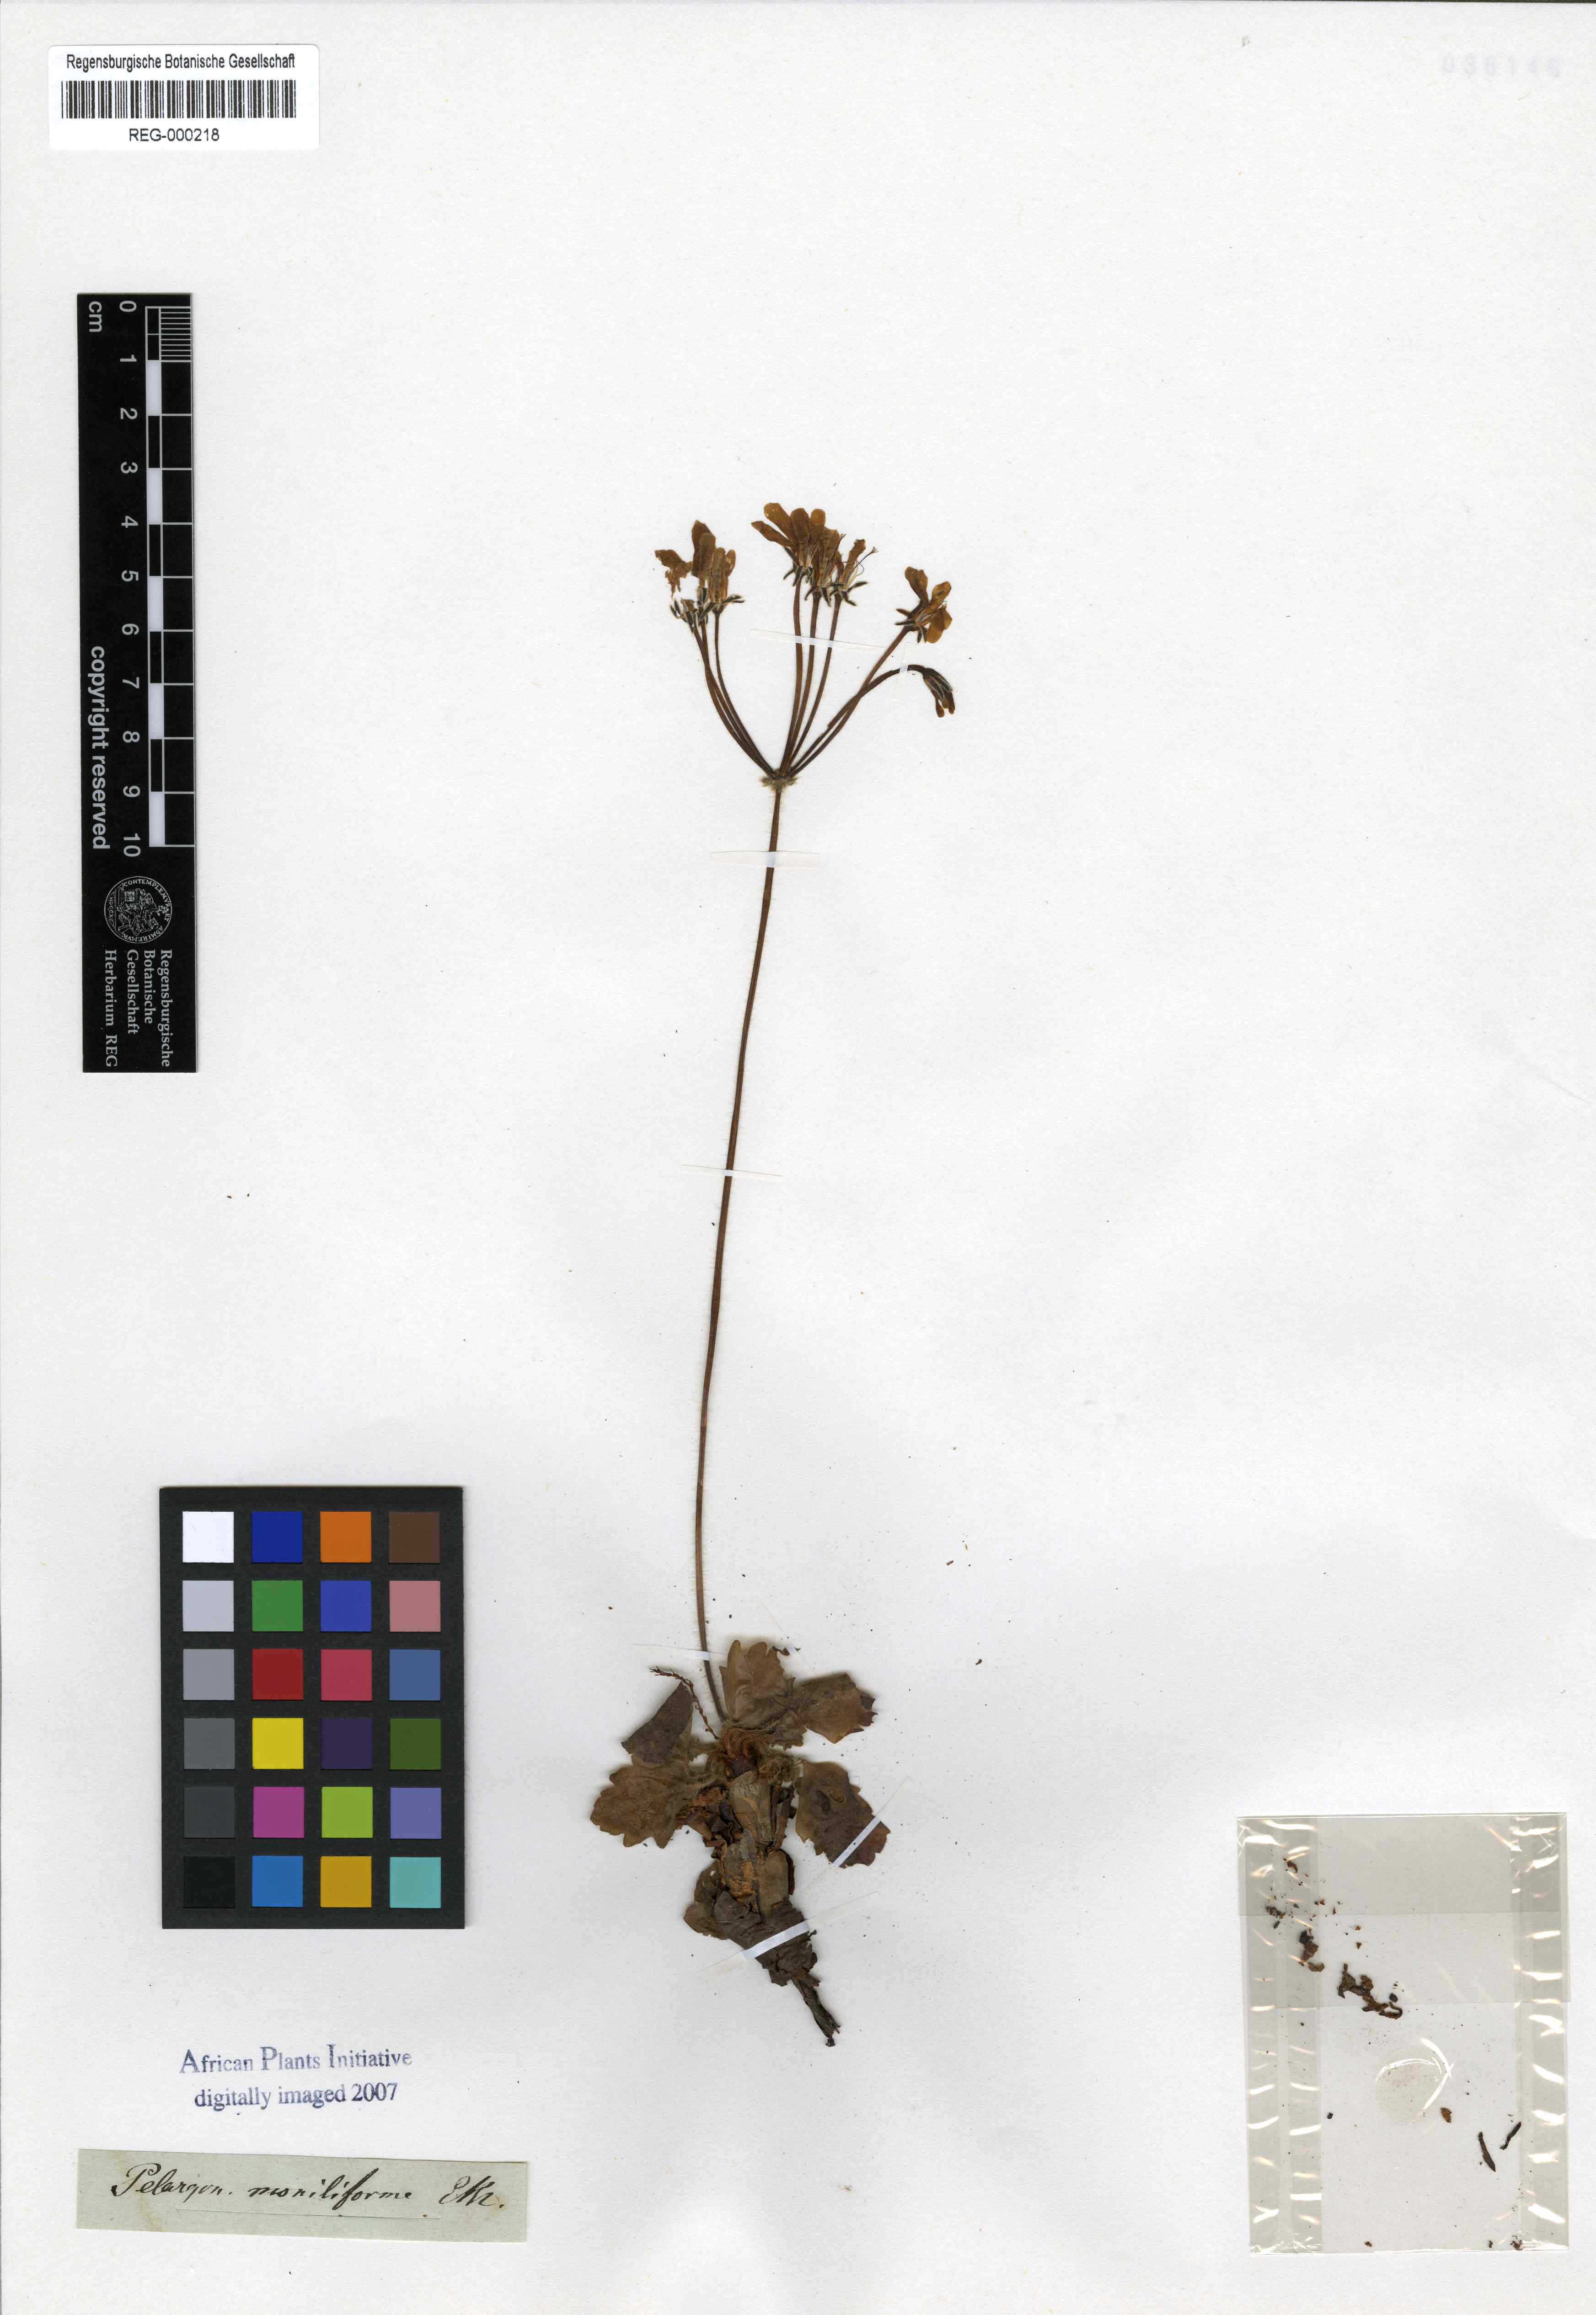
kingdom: Plantae
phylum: Tracheophyta
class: Magnoliopsida
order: Geraniales
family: Geraniaceae
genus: Pelargonium
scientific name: Pelargonium moniliforme
